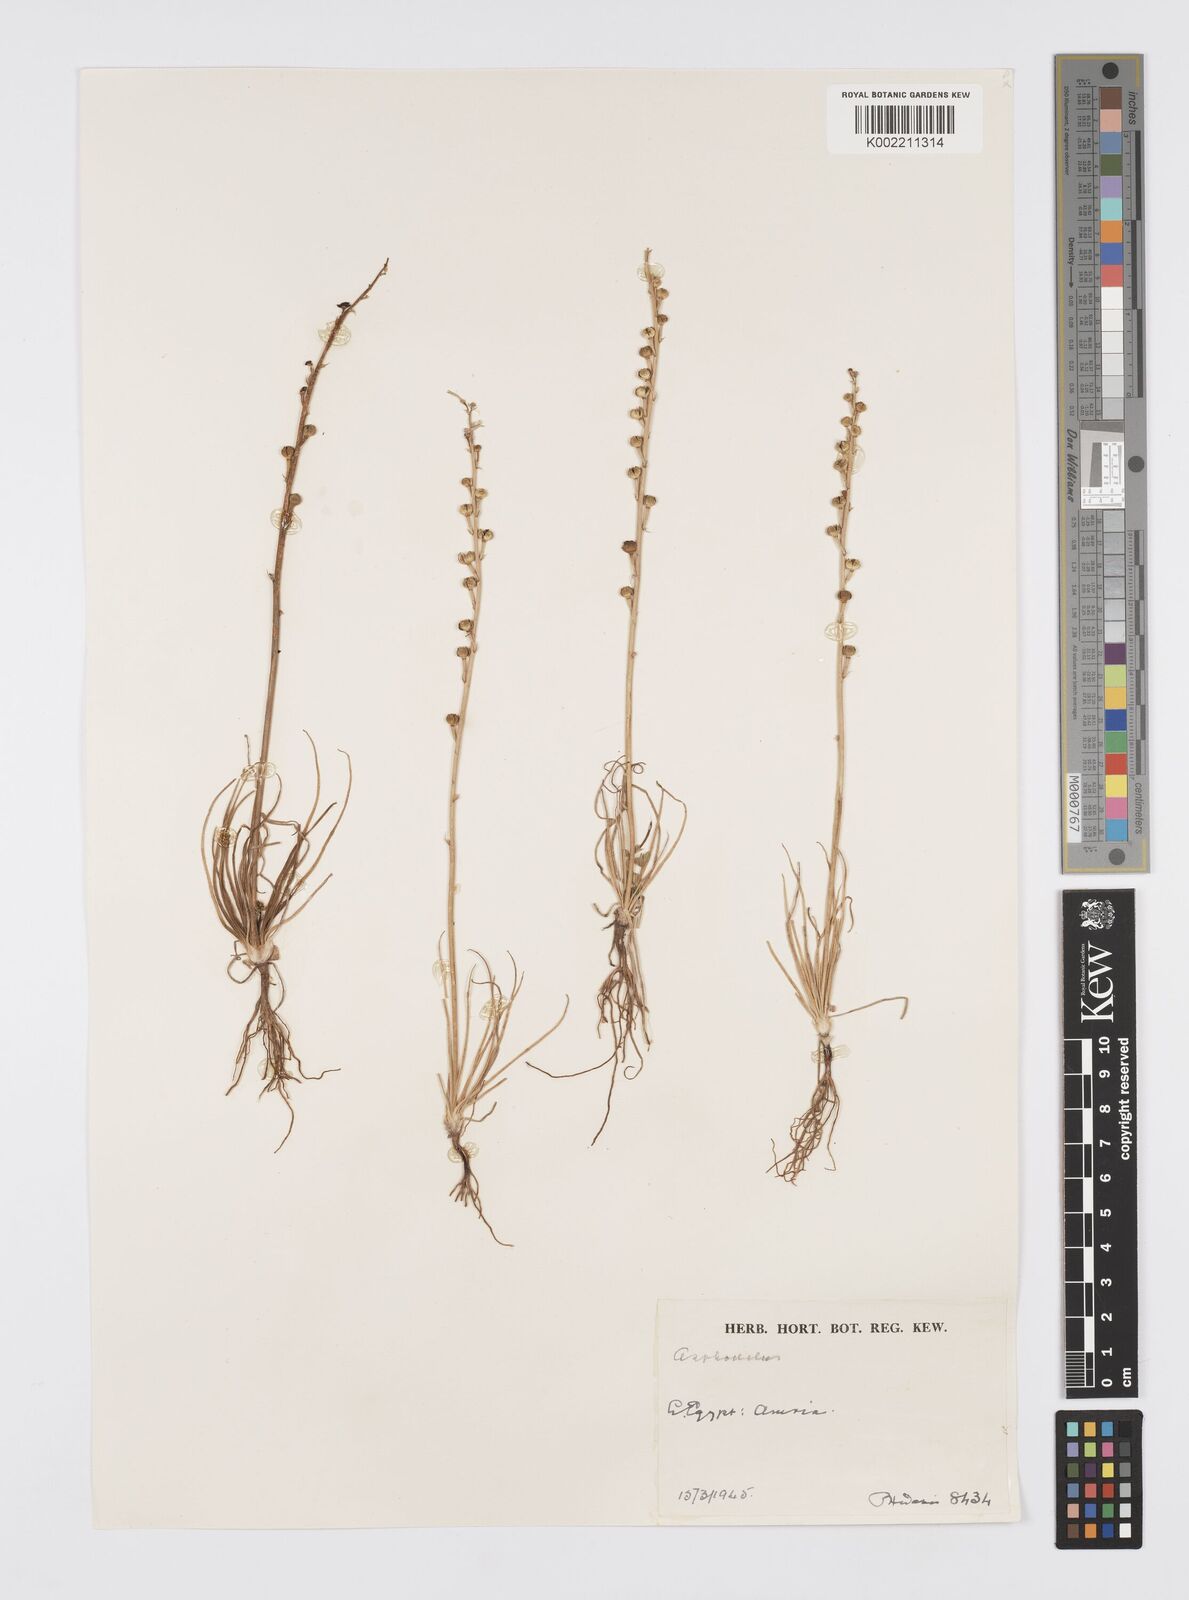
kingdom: Plantae
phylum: Tracheophyta
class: Liliopsida
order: Asparagales
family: Asphodelaceae
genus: Asphodeline
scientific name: Asphodeline tenuior
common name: Thin asphodeline
